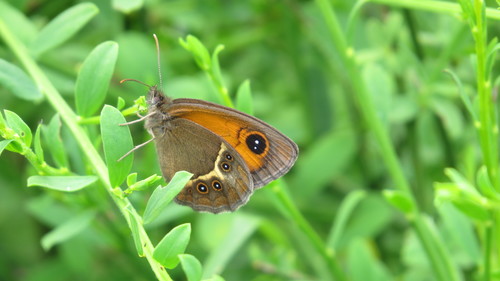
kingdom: Animalia
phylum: Arthropoda
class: Insecta
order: Lepidoptera
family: Nymphalidae
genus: Pyronia
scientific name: Pyronia bathseba
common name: Spanish gatekeeper
